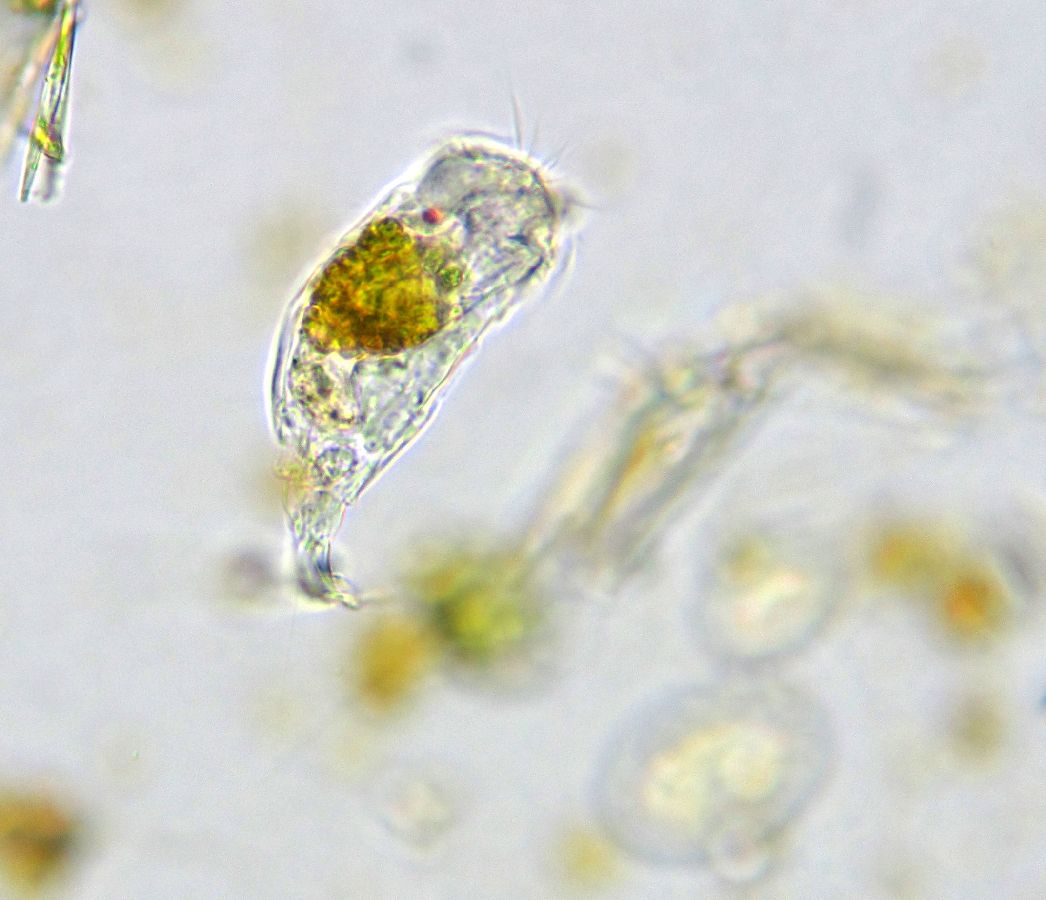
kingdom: Animalia
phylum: Rotifera
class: Eurotatoria
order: Ploima
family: Notommatidae
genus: Cephalodella
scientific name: Cephalodella auriculata
